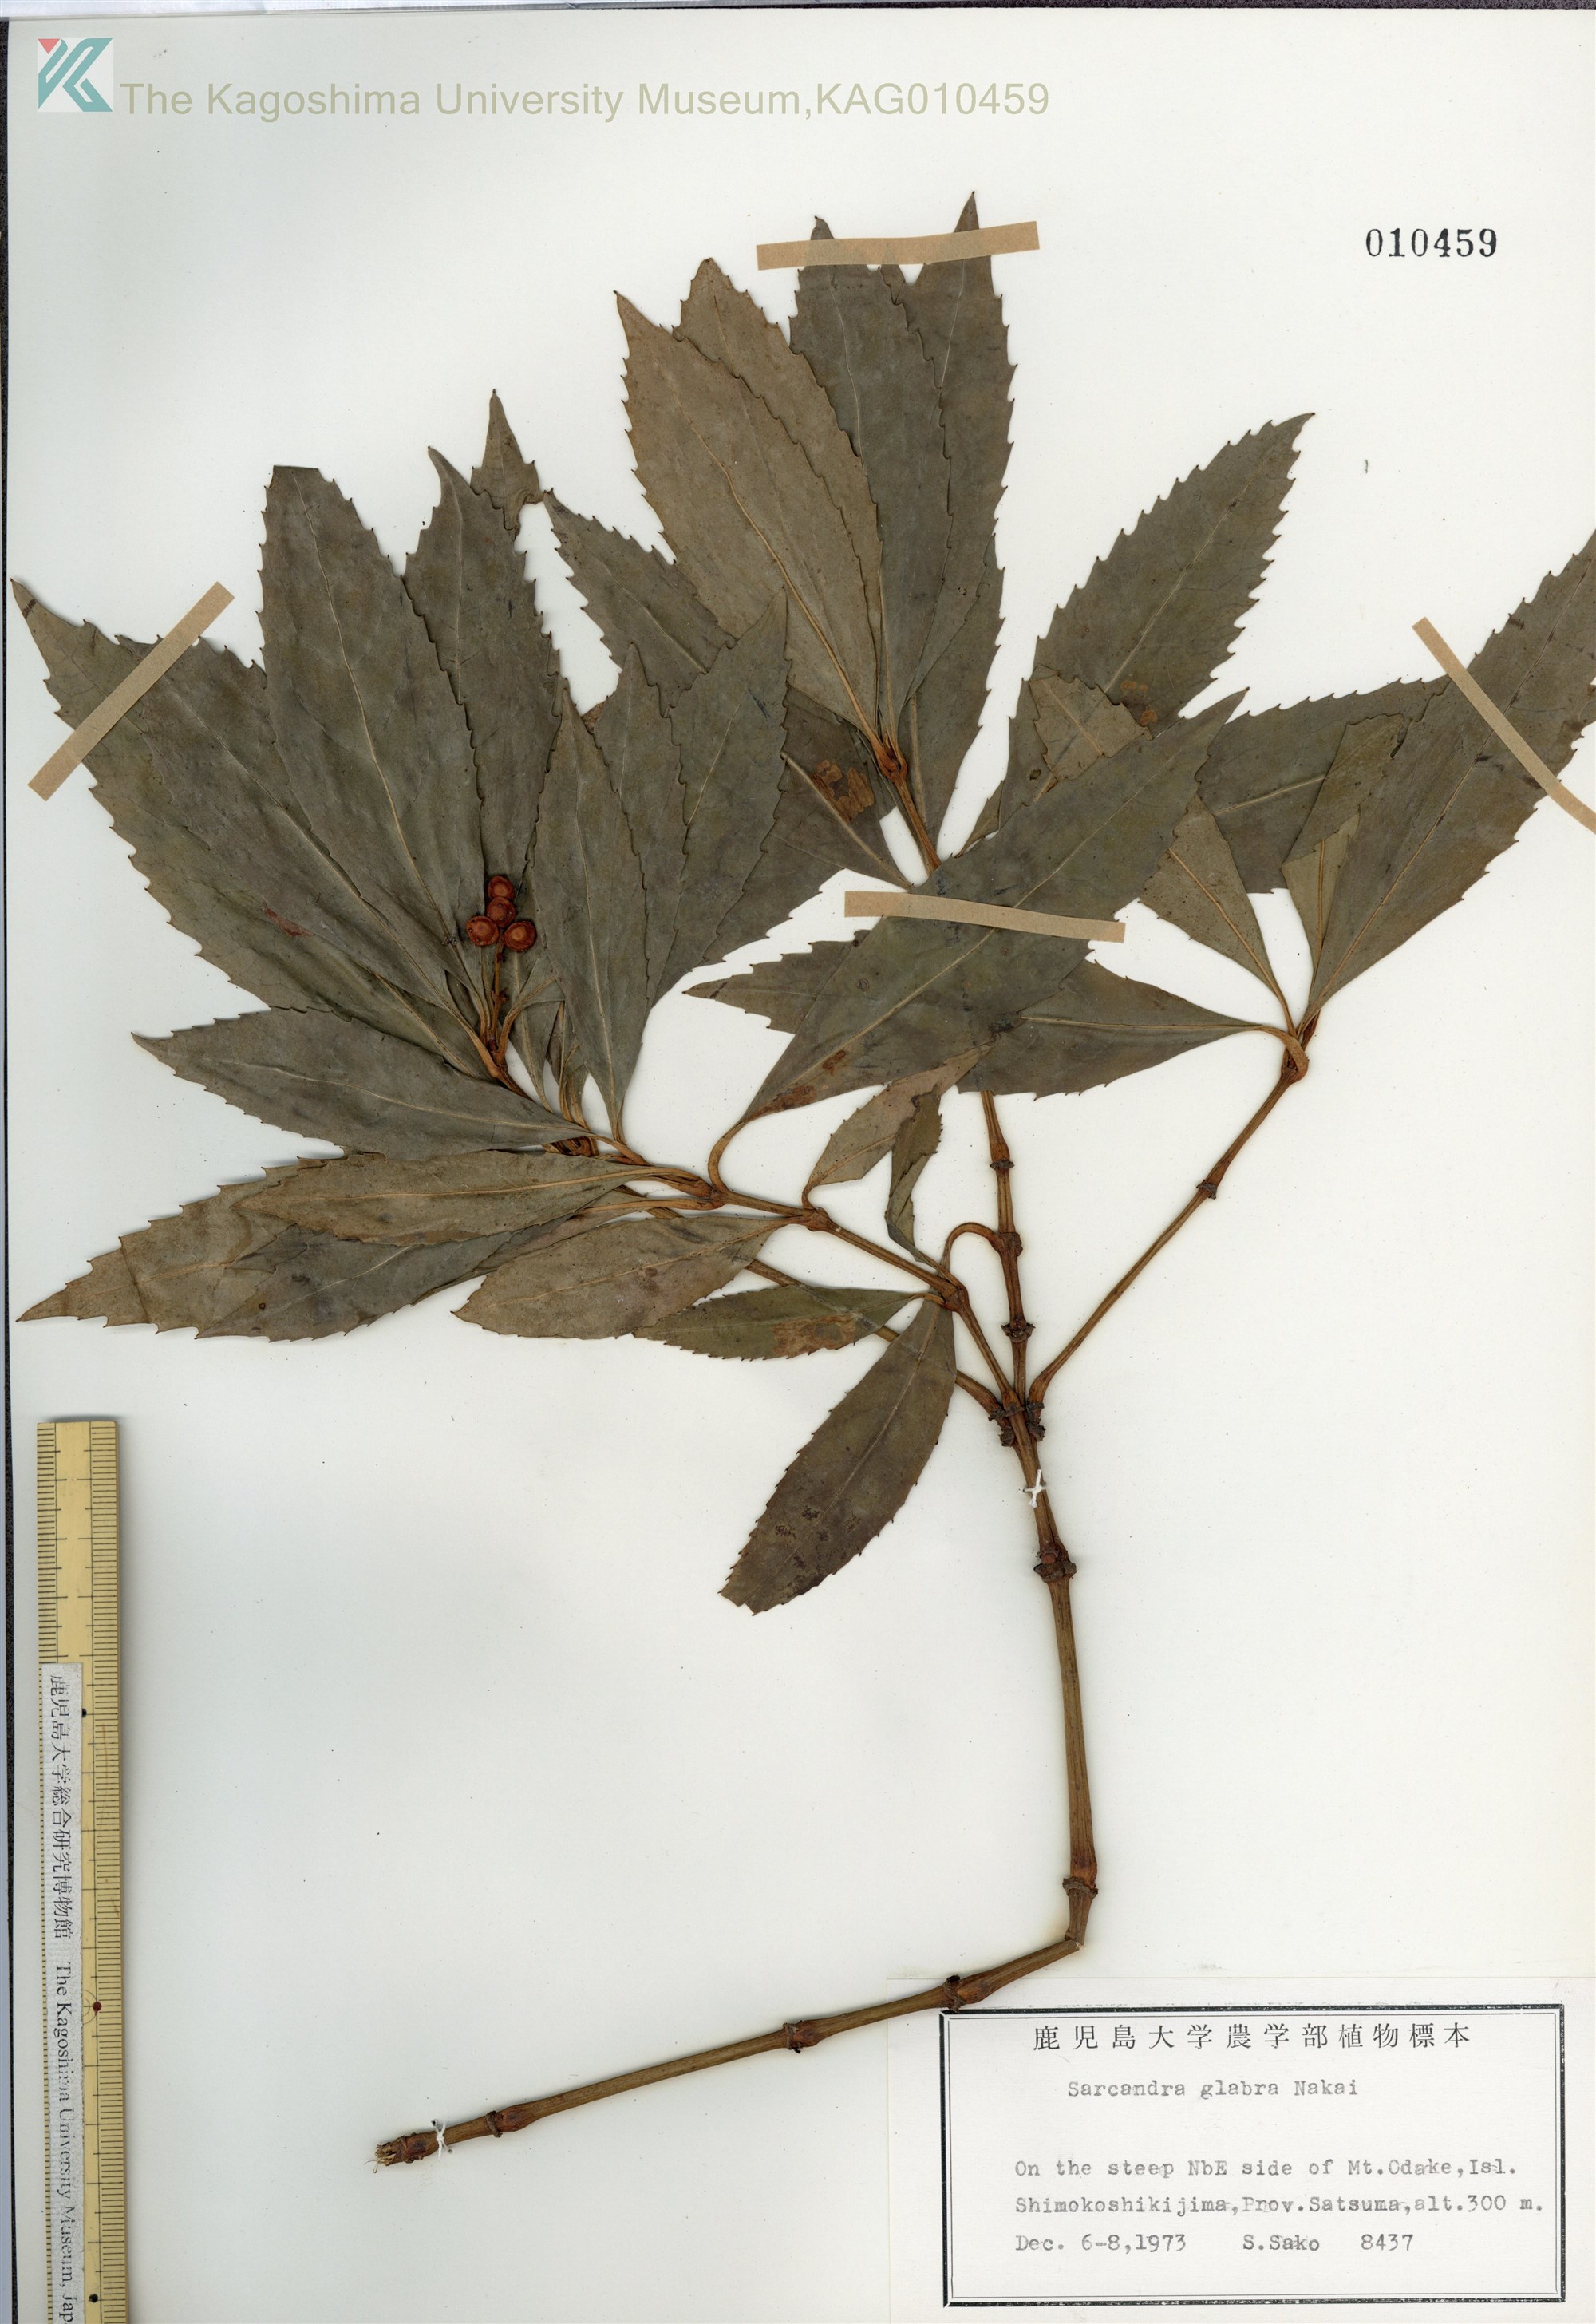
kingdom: Plantae
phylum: Tracheophyta
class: Magnoliopsida
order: Chloranthales
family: Chloranthaceae
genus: Sarcandra
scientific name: Sarcandra glabra
